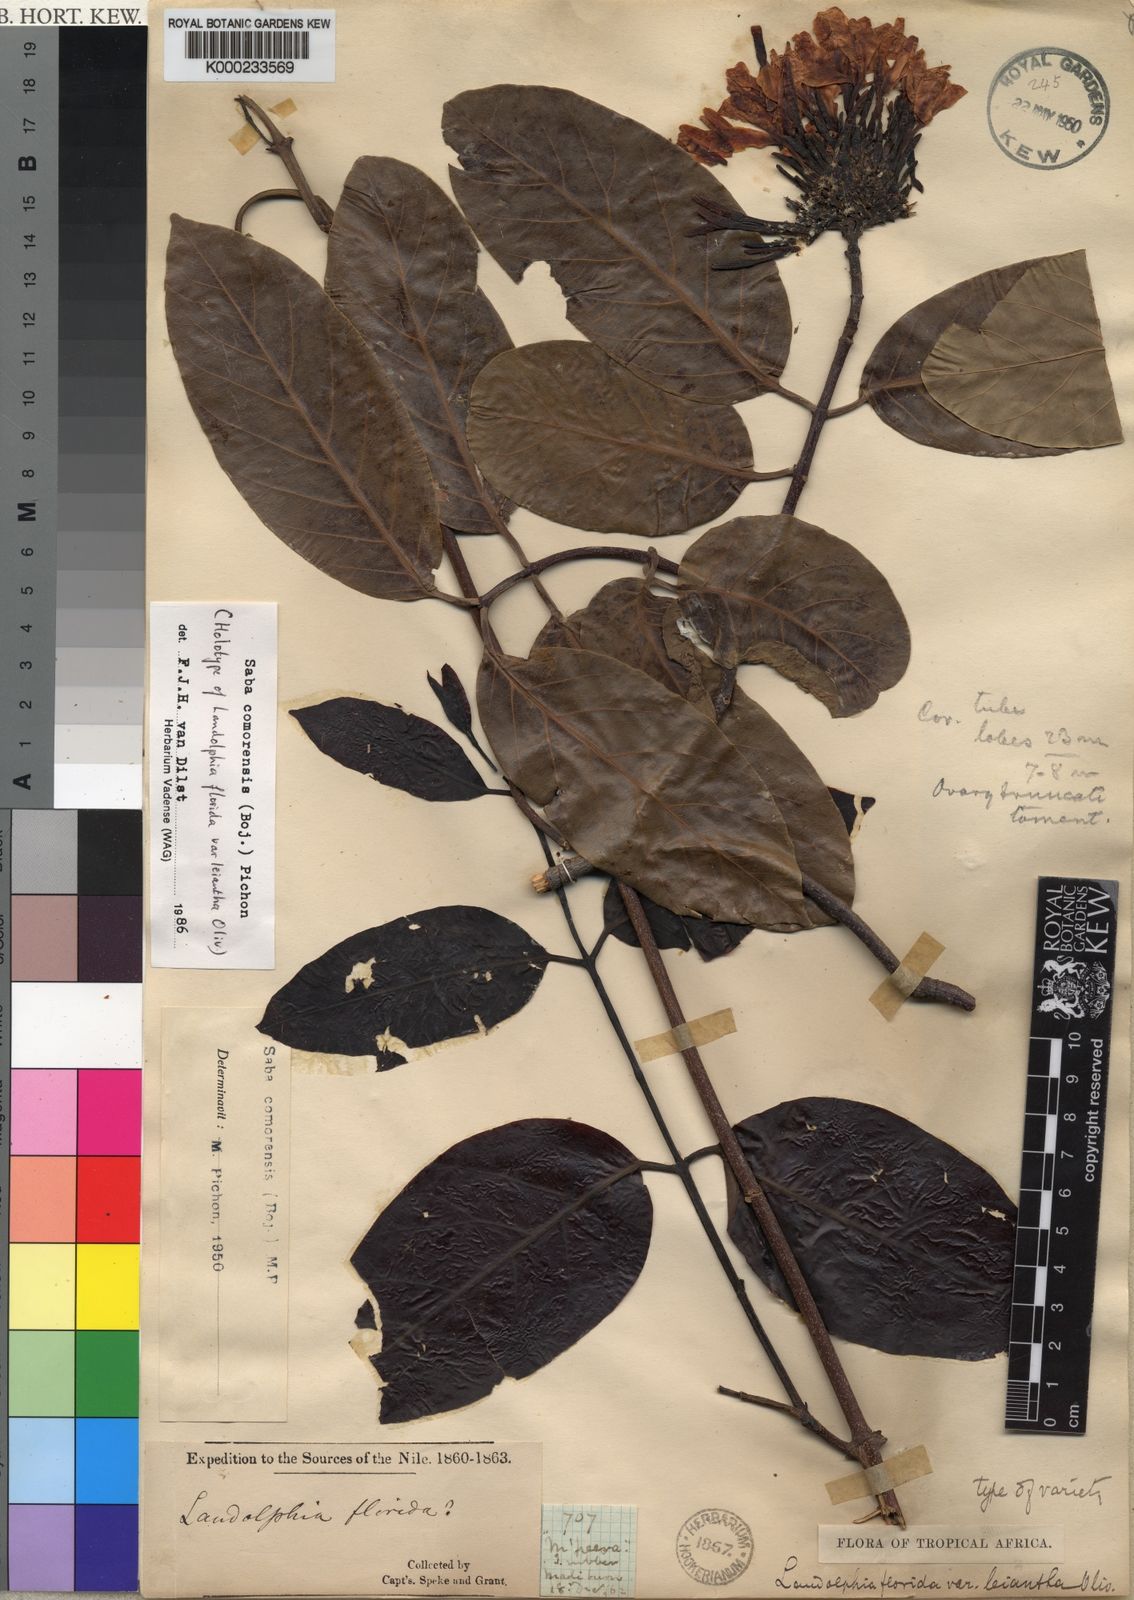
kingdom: Plantae
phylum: Tracheophyta
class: Magnoliopsida
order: Gentianales
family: Apocynaceae
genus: Saba
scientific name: Saba comorensis
